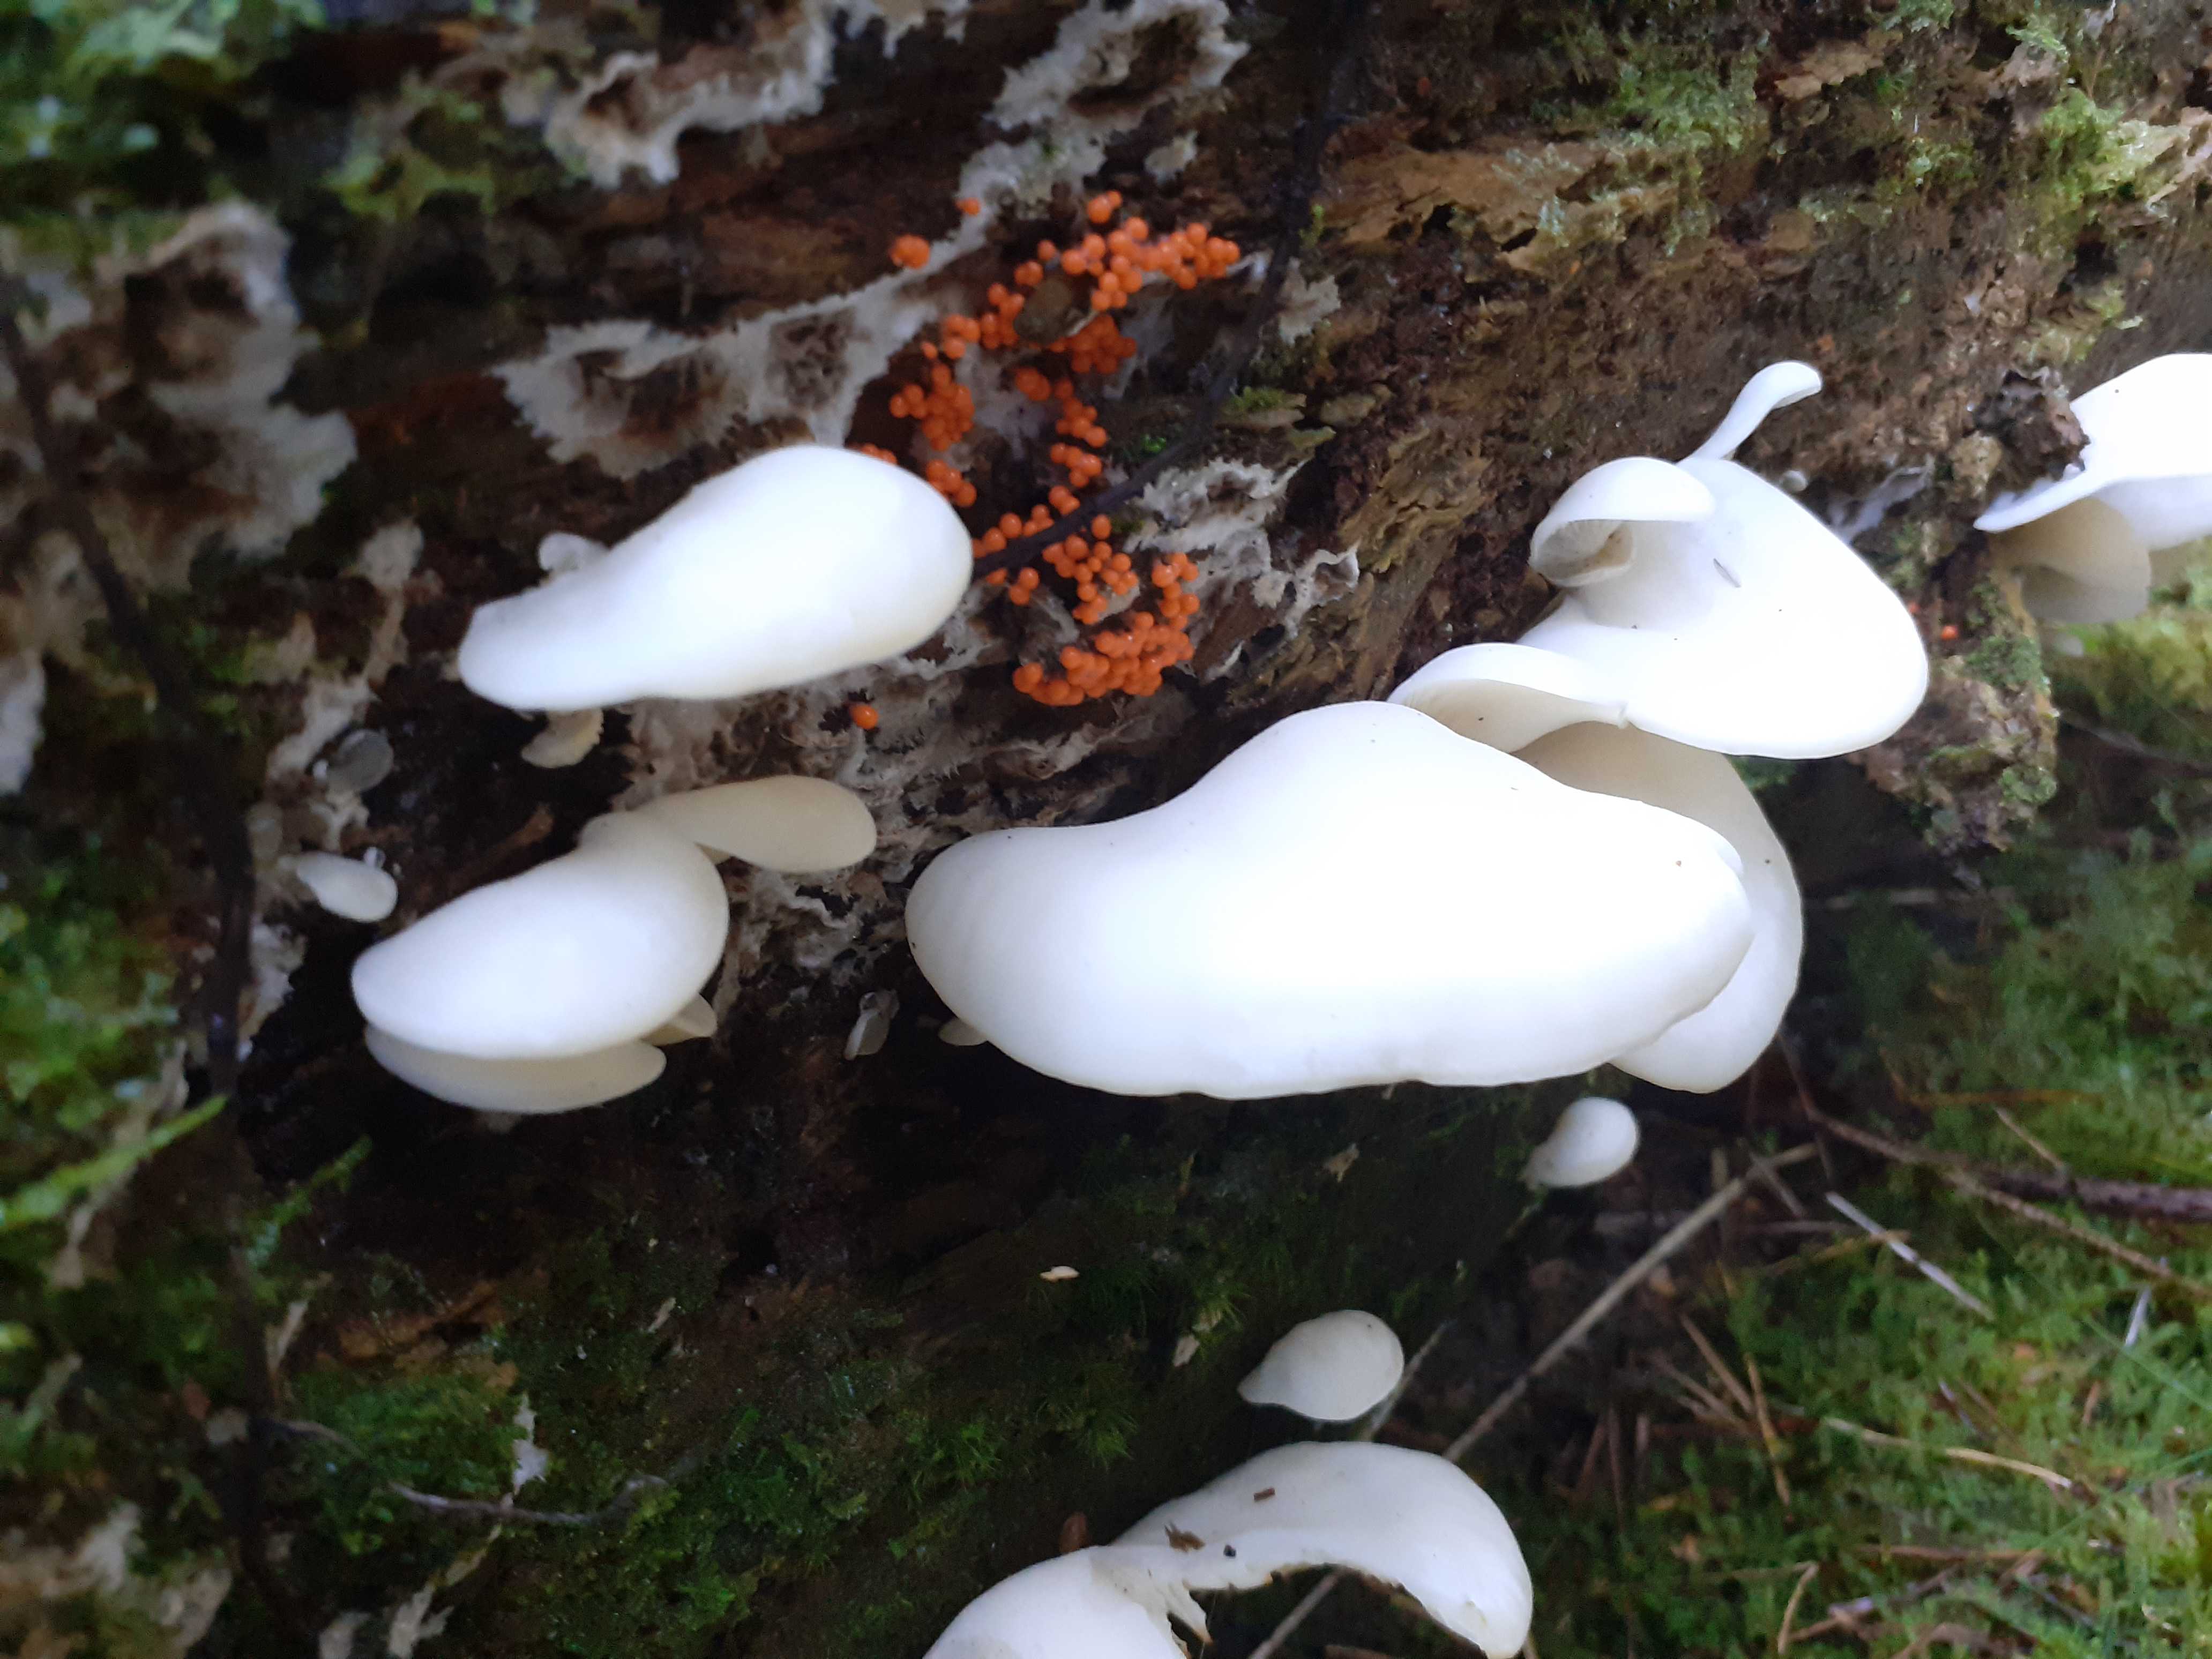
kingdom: Fungi
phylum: Basidiomycota
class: Agaricomycetes
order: Agaricales
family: Marasmiaceae
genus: Pleurocybella
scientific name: Pleurocybella porrigens
